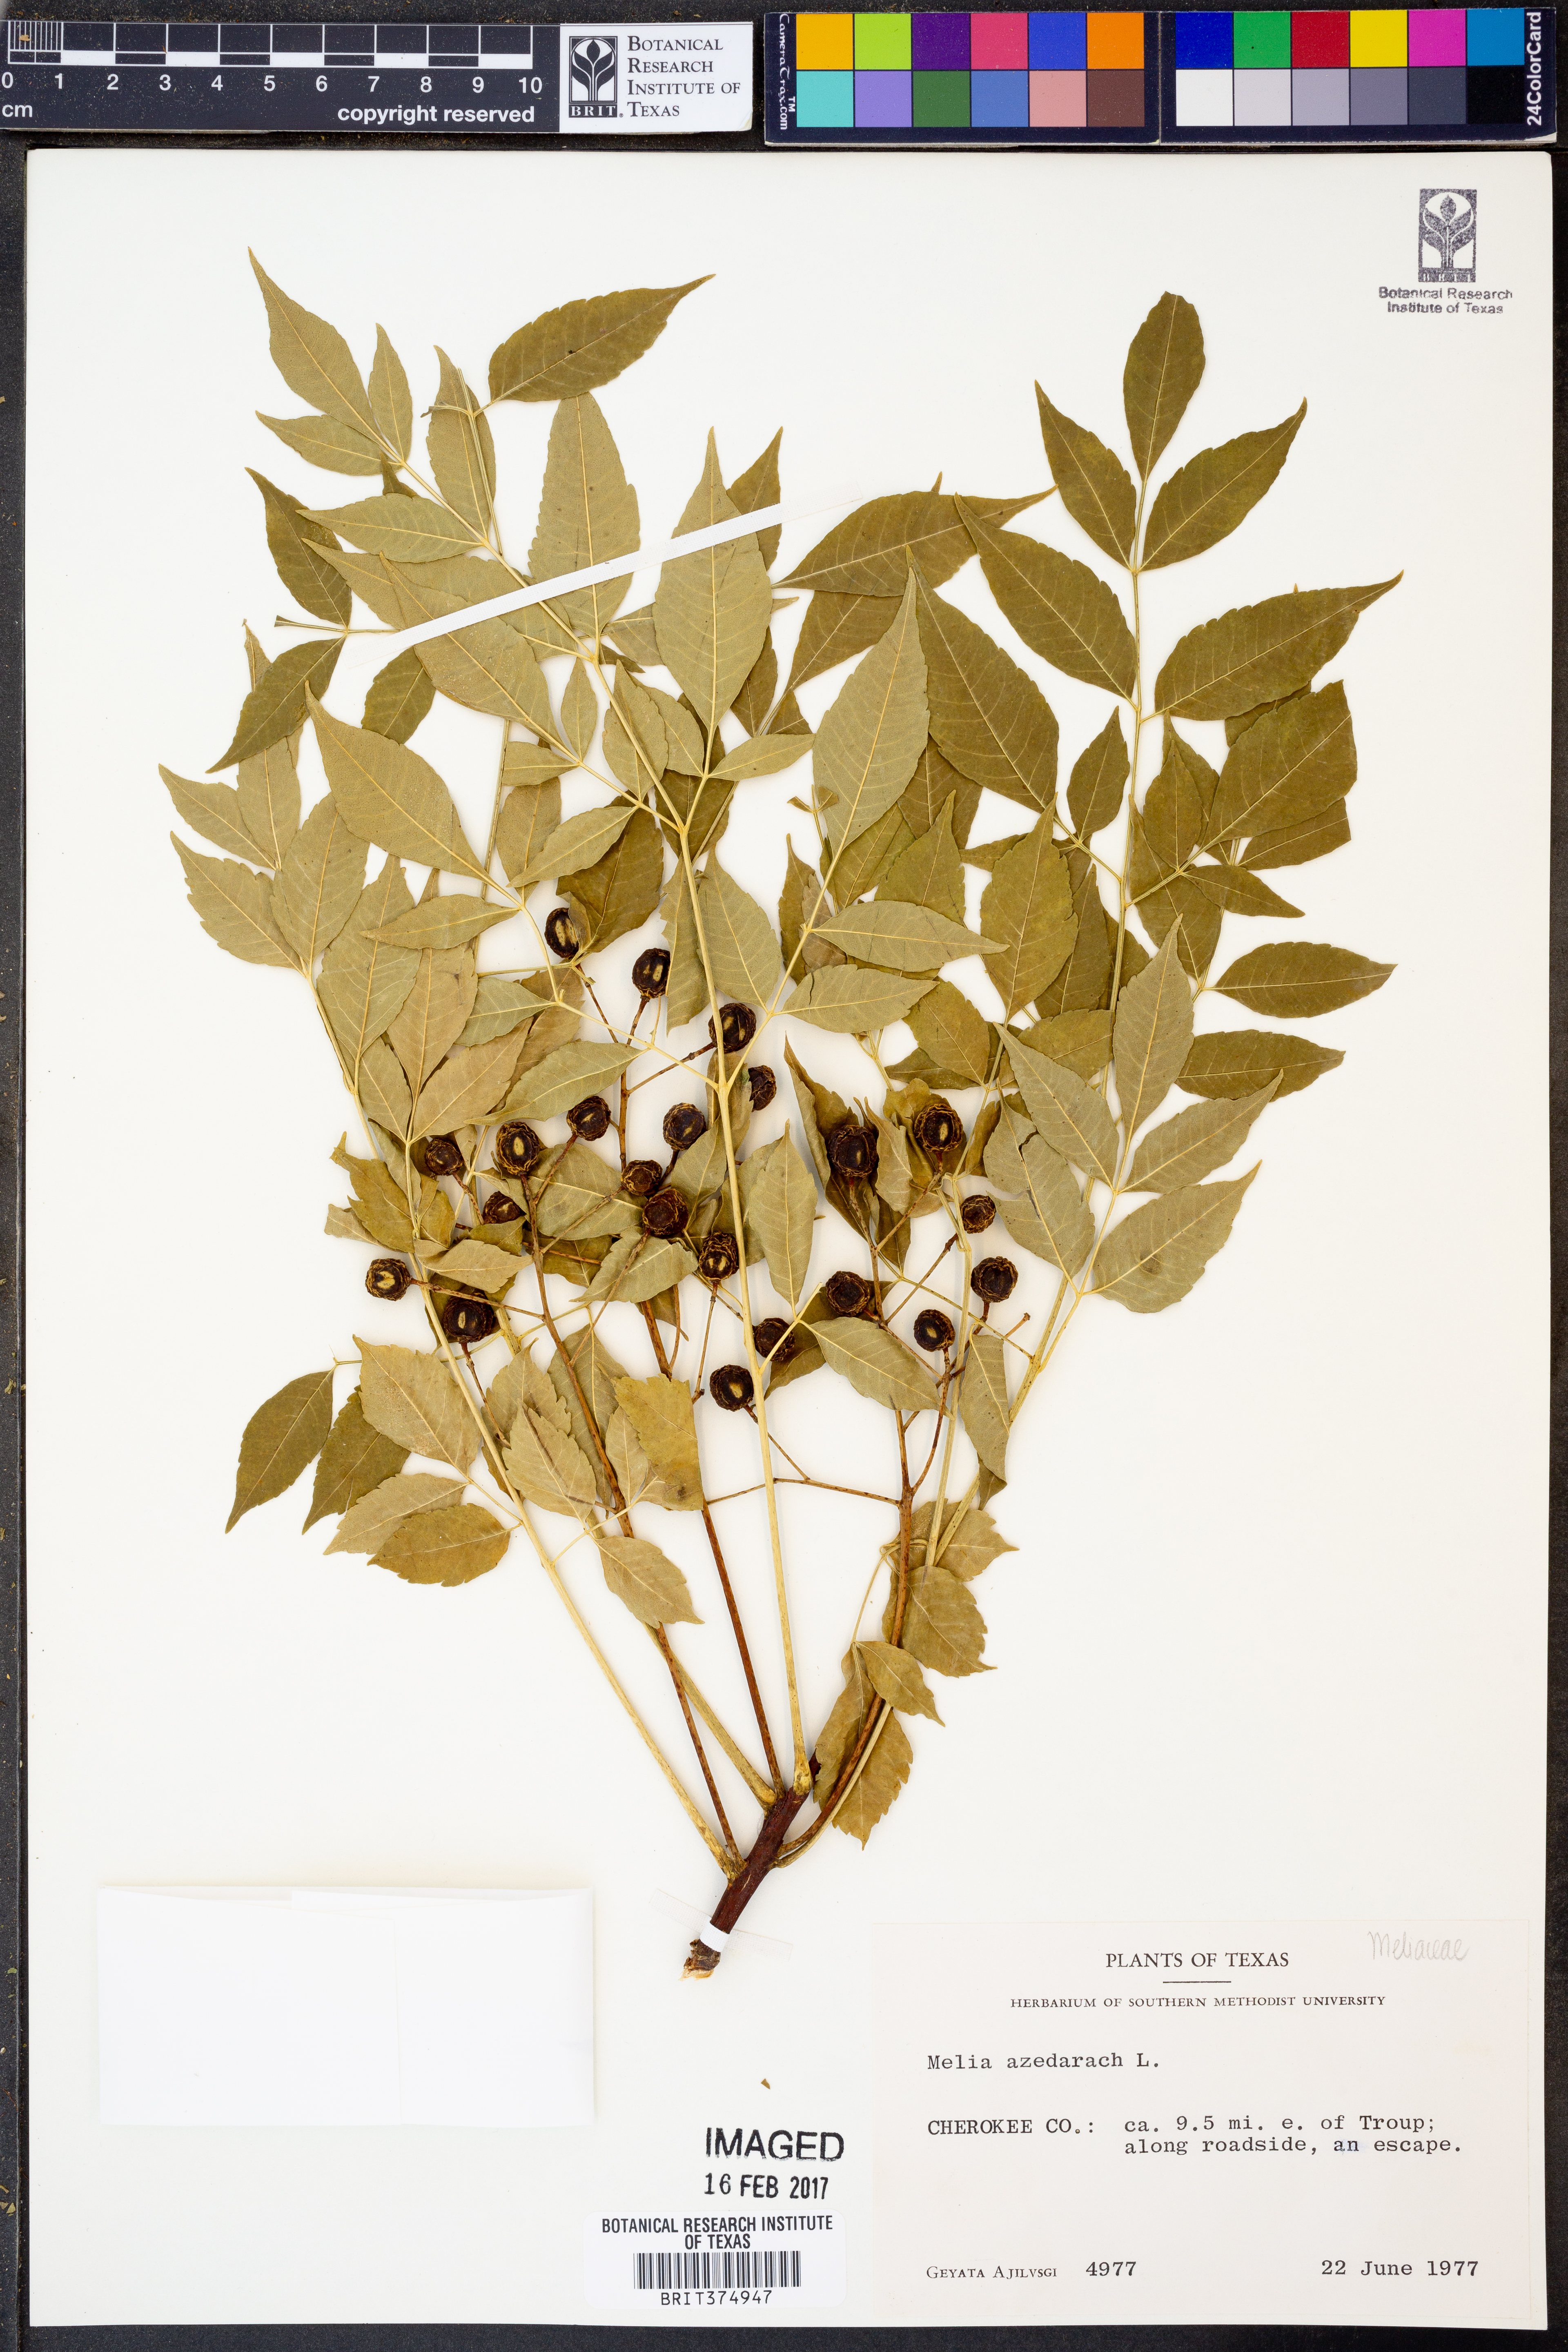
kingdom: Plantae
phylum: Tracheophyta
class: Magnoliopsida
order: Sapindales
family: Meliaceae
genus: Melia
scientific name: Melia azedarach
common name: Chinaberrytree
